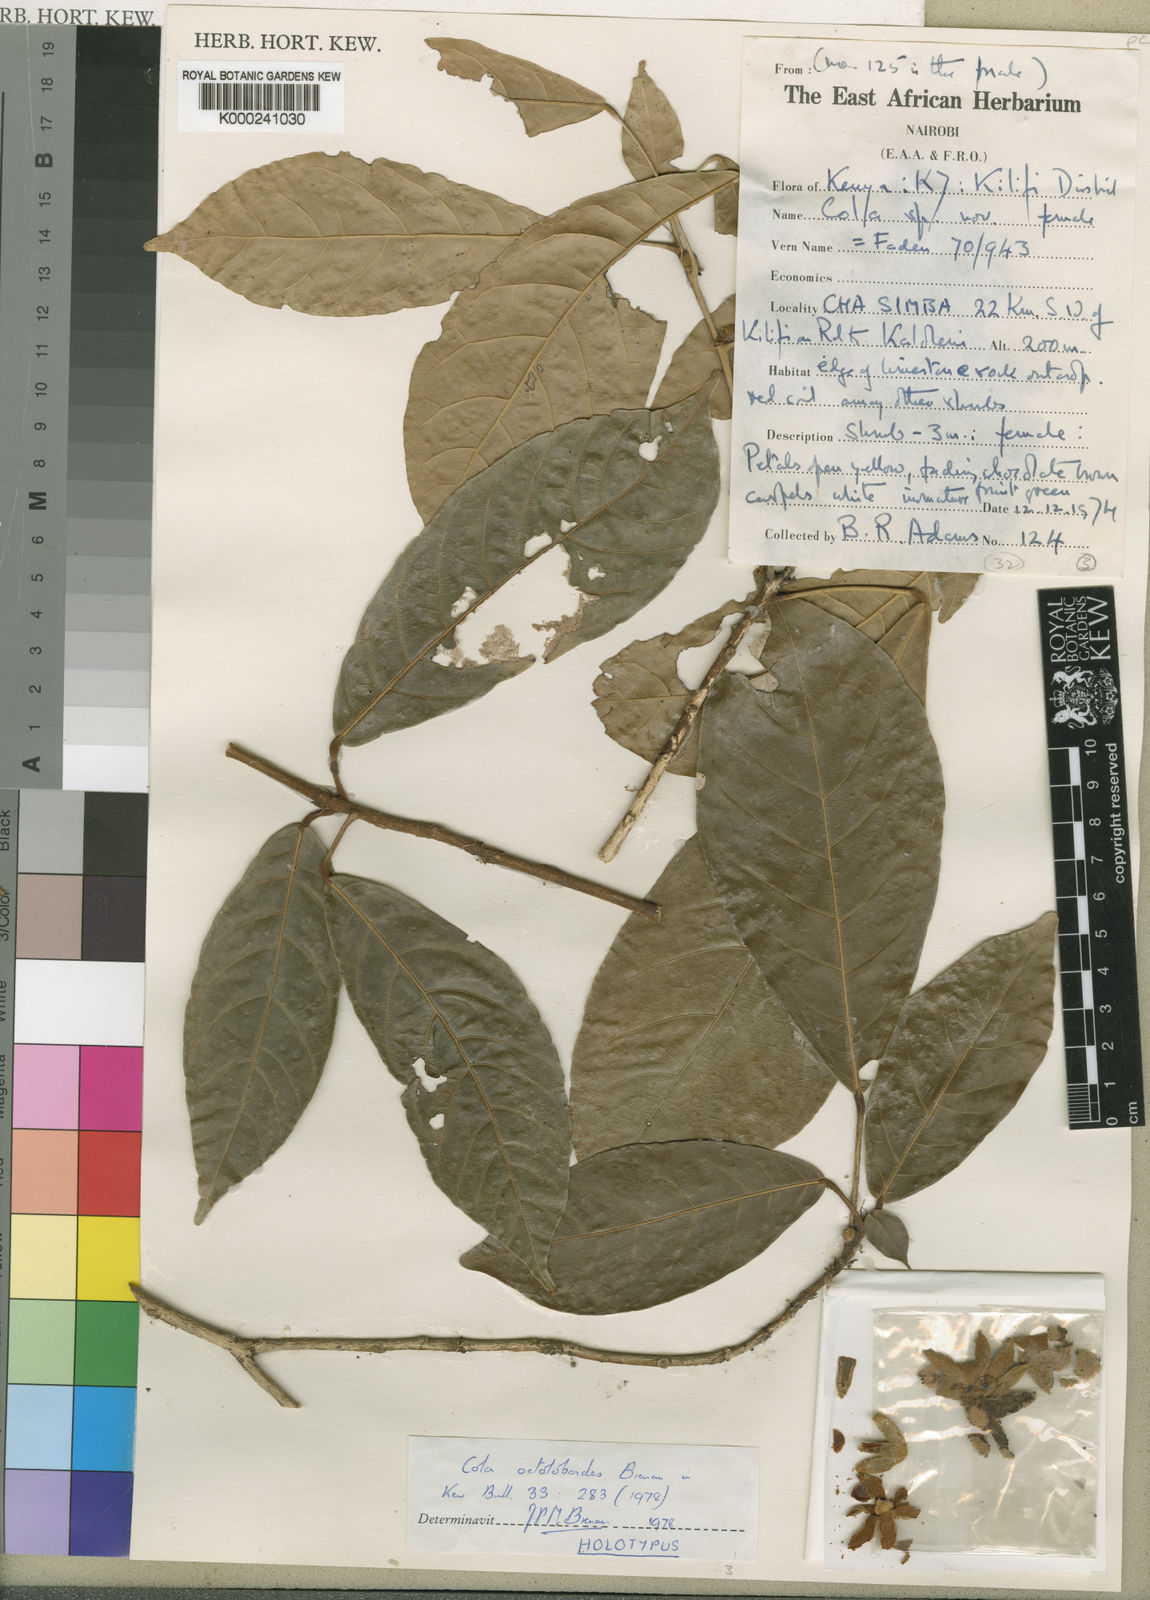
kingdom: Plantae
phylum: Tracheophyta
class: Magnoliopsida
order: Malvales
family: Malvaceae
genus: Cola
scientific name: Cola octoloboides
